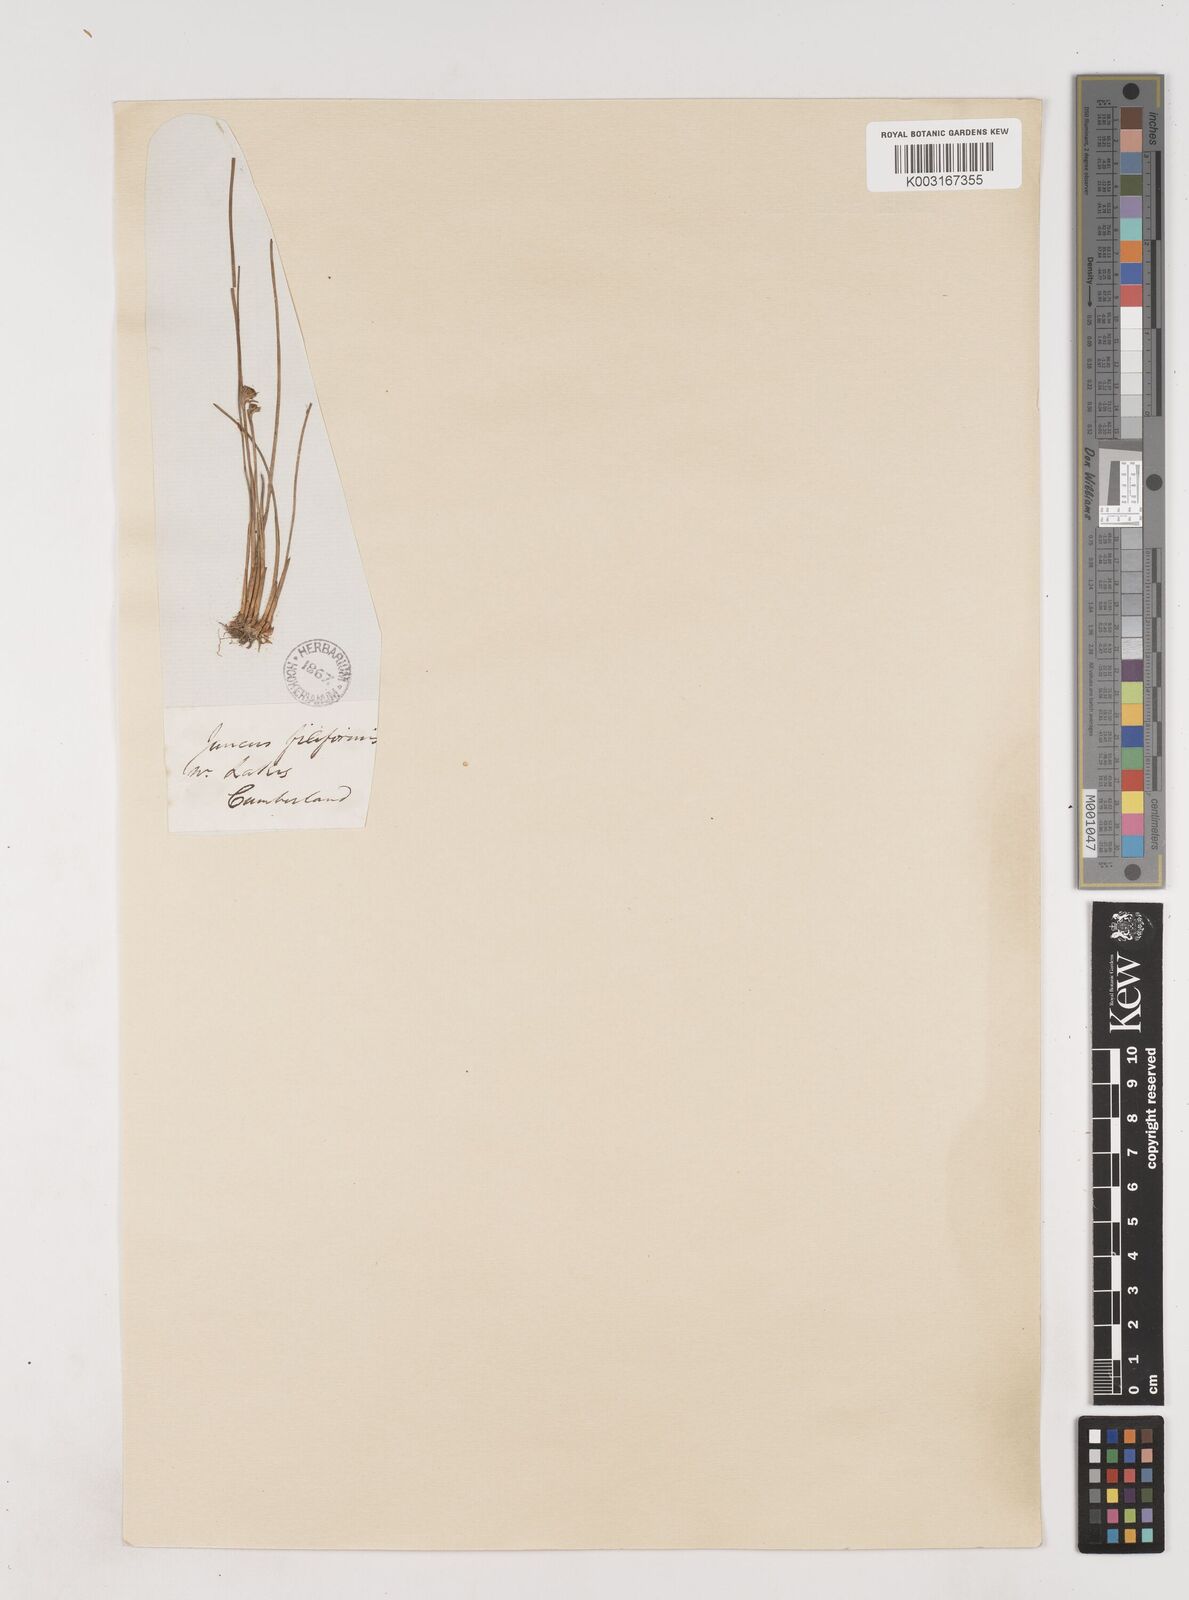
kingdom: Plantae
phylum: Tracheophyta
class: Liliopsida
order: Poales
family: Juncaceae
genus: Juncus
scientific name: Juncus filiformis
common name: Thread rush
